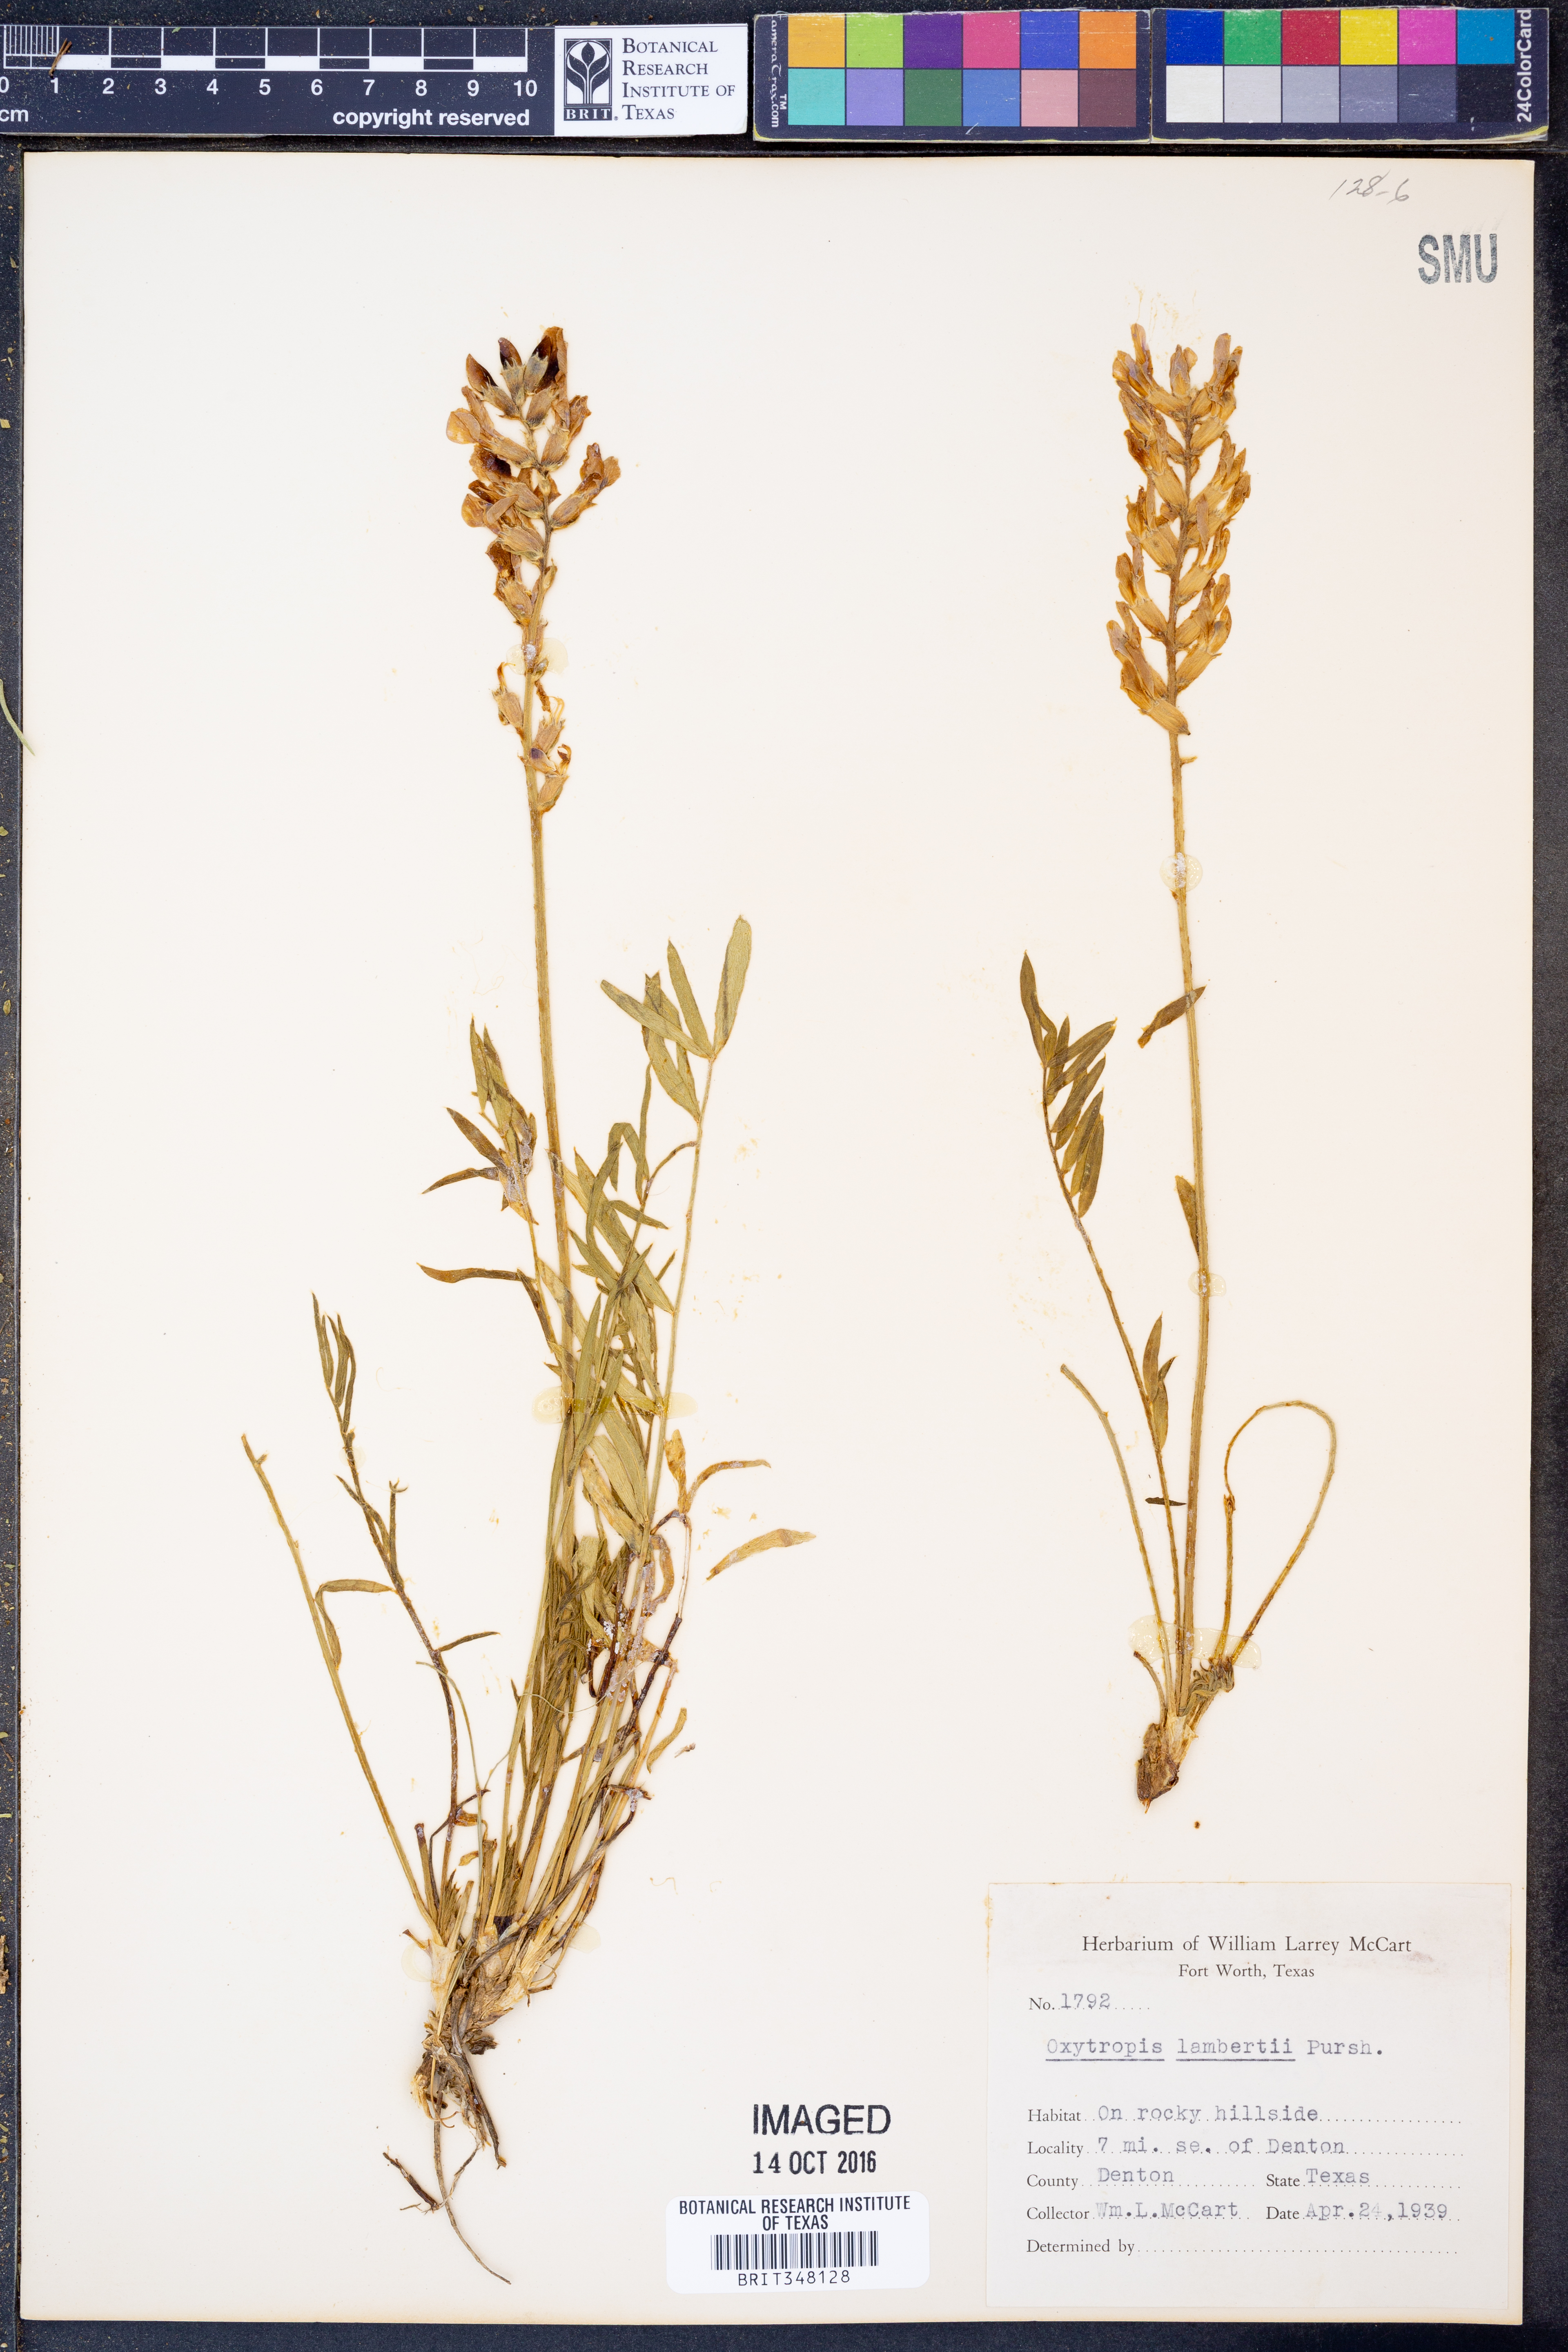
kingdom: Plantae
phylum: Tracheophyta
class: Magnoliopsida
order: Fabales
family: Fabaceae
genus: Oxytropis
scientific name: Oxytropis lambertii
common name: Purple locoweed
